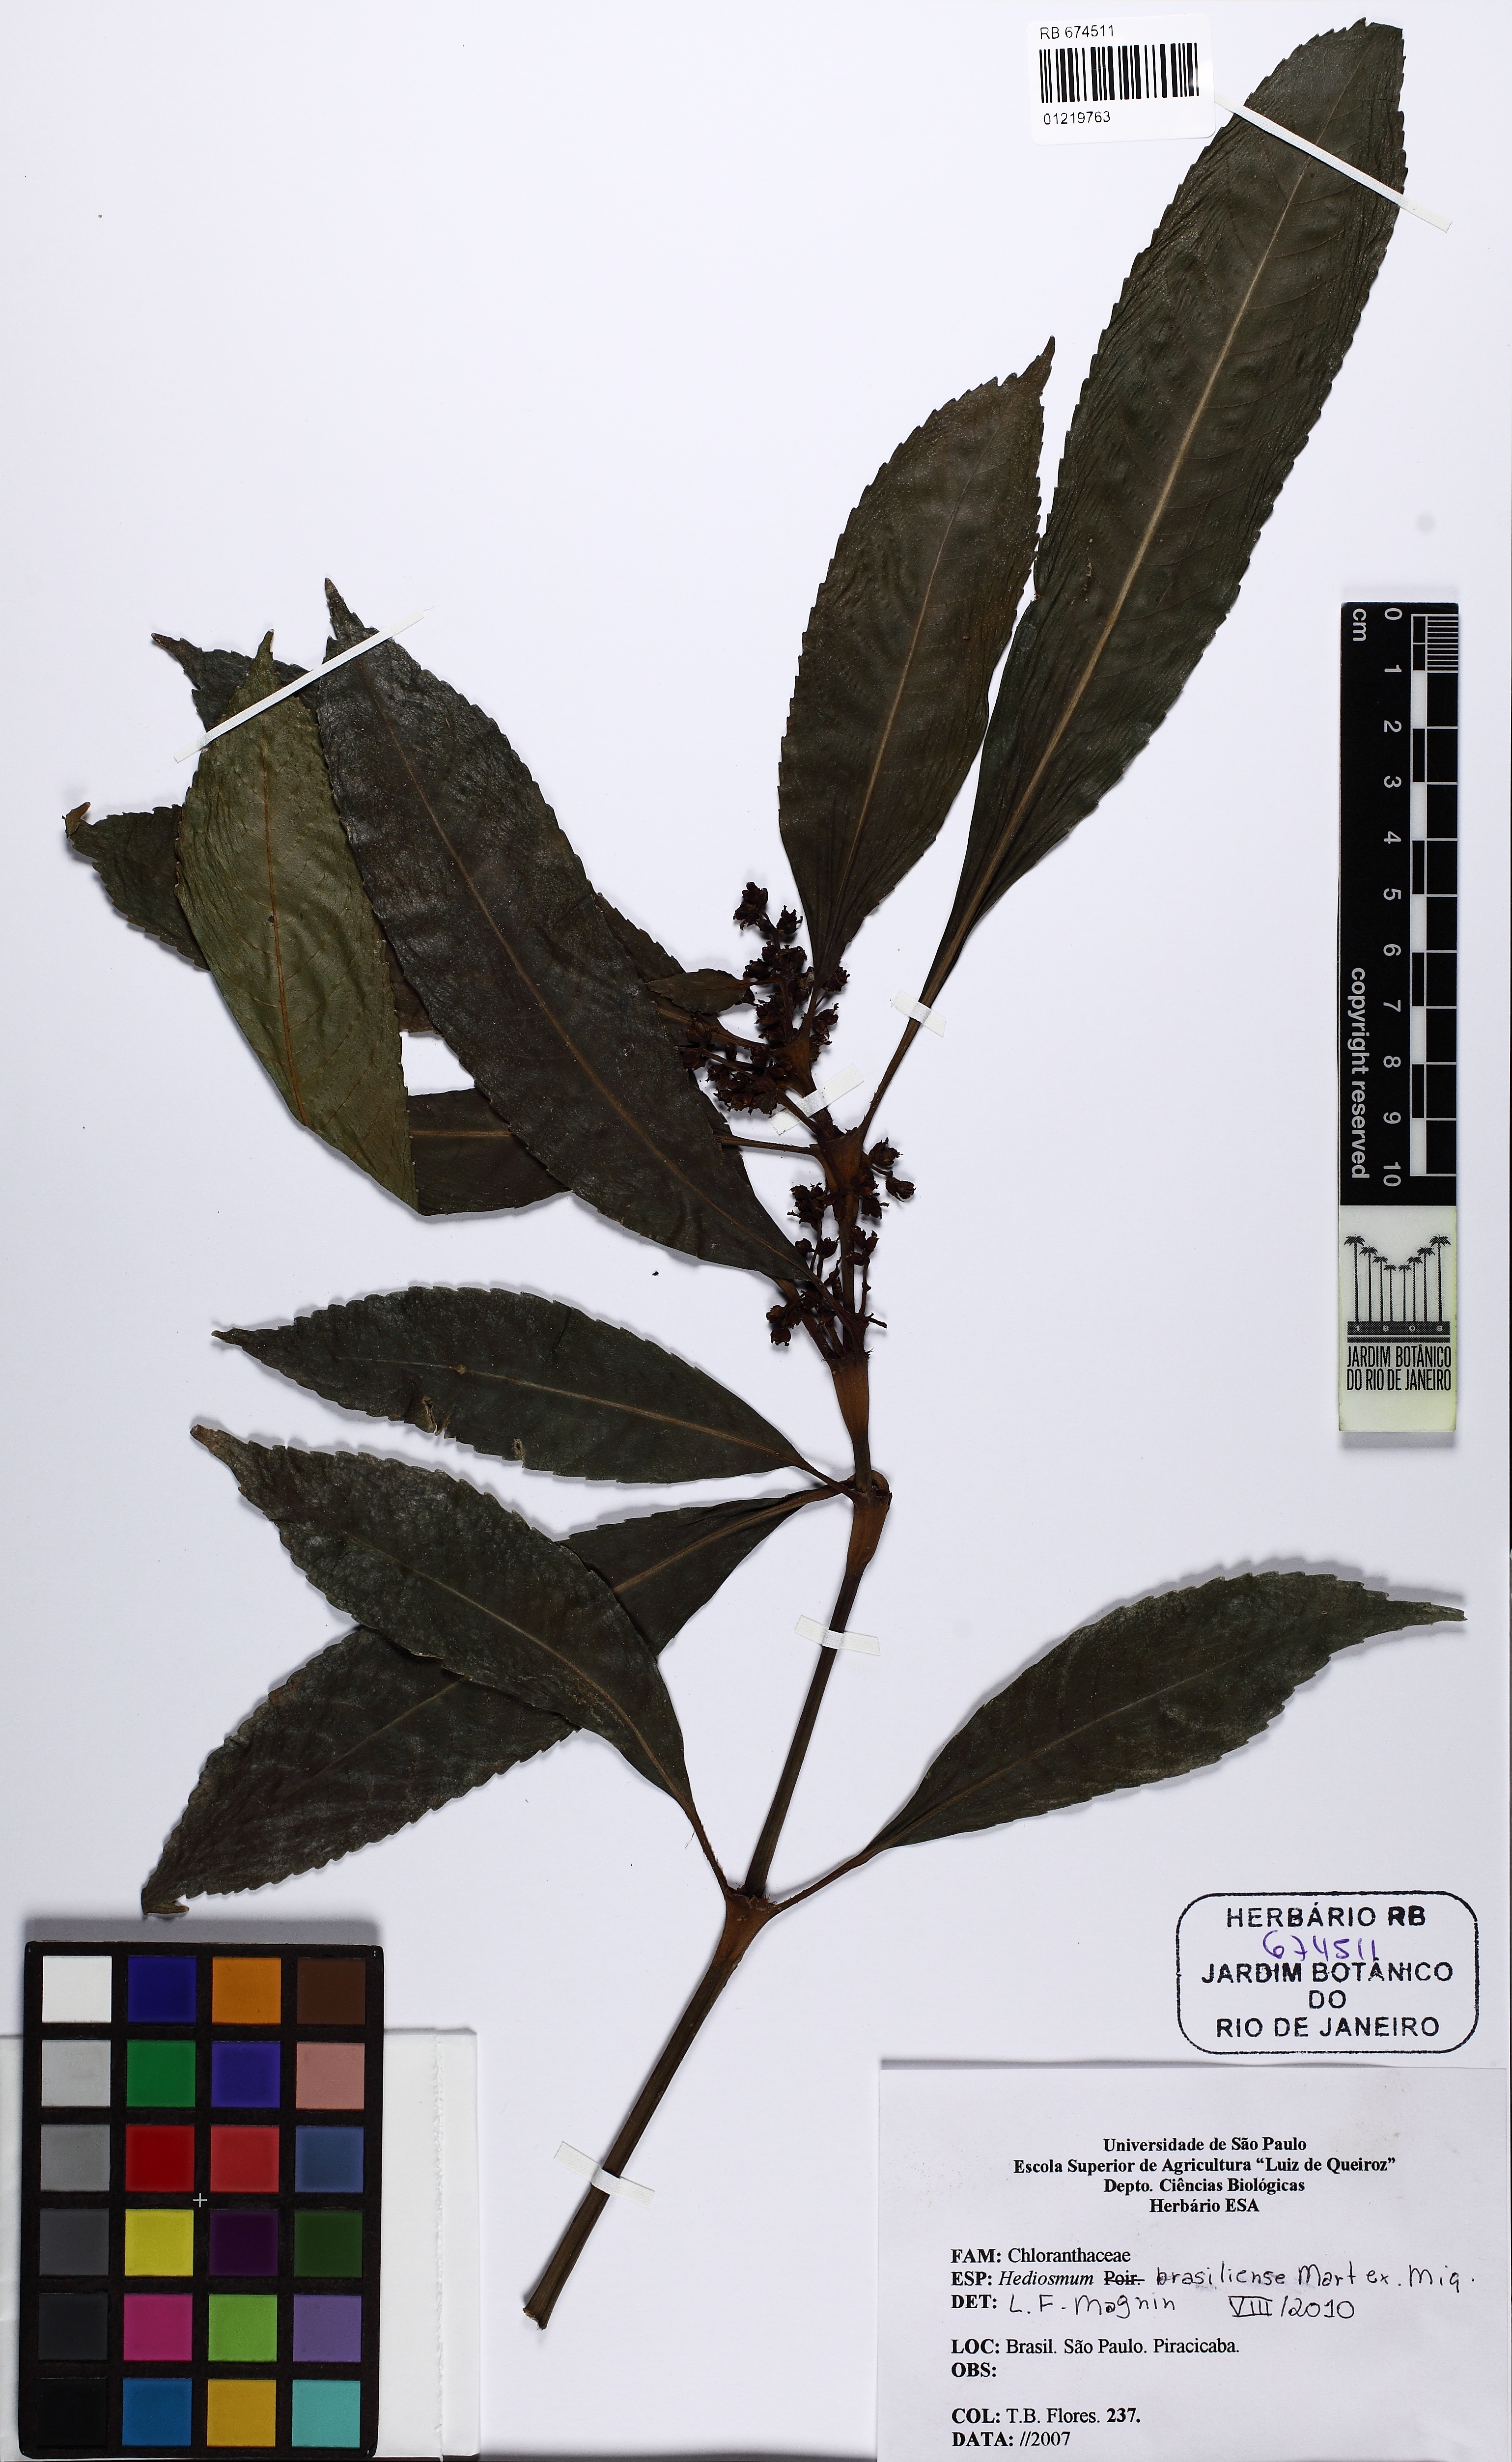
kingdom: Plantae
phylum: Tracheophyta
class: Magnoliopsida
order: Chloranthales
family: Chloranthaceae
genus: Hedyosmum
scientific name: Hedyosmum brasiliense
